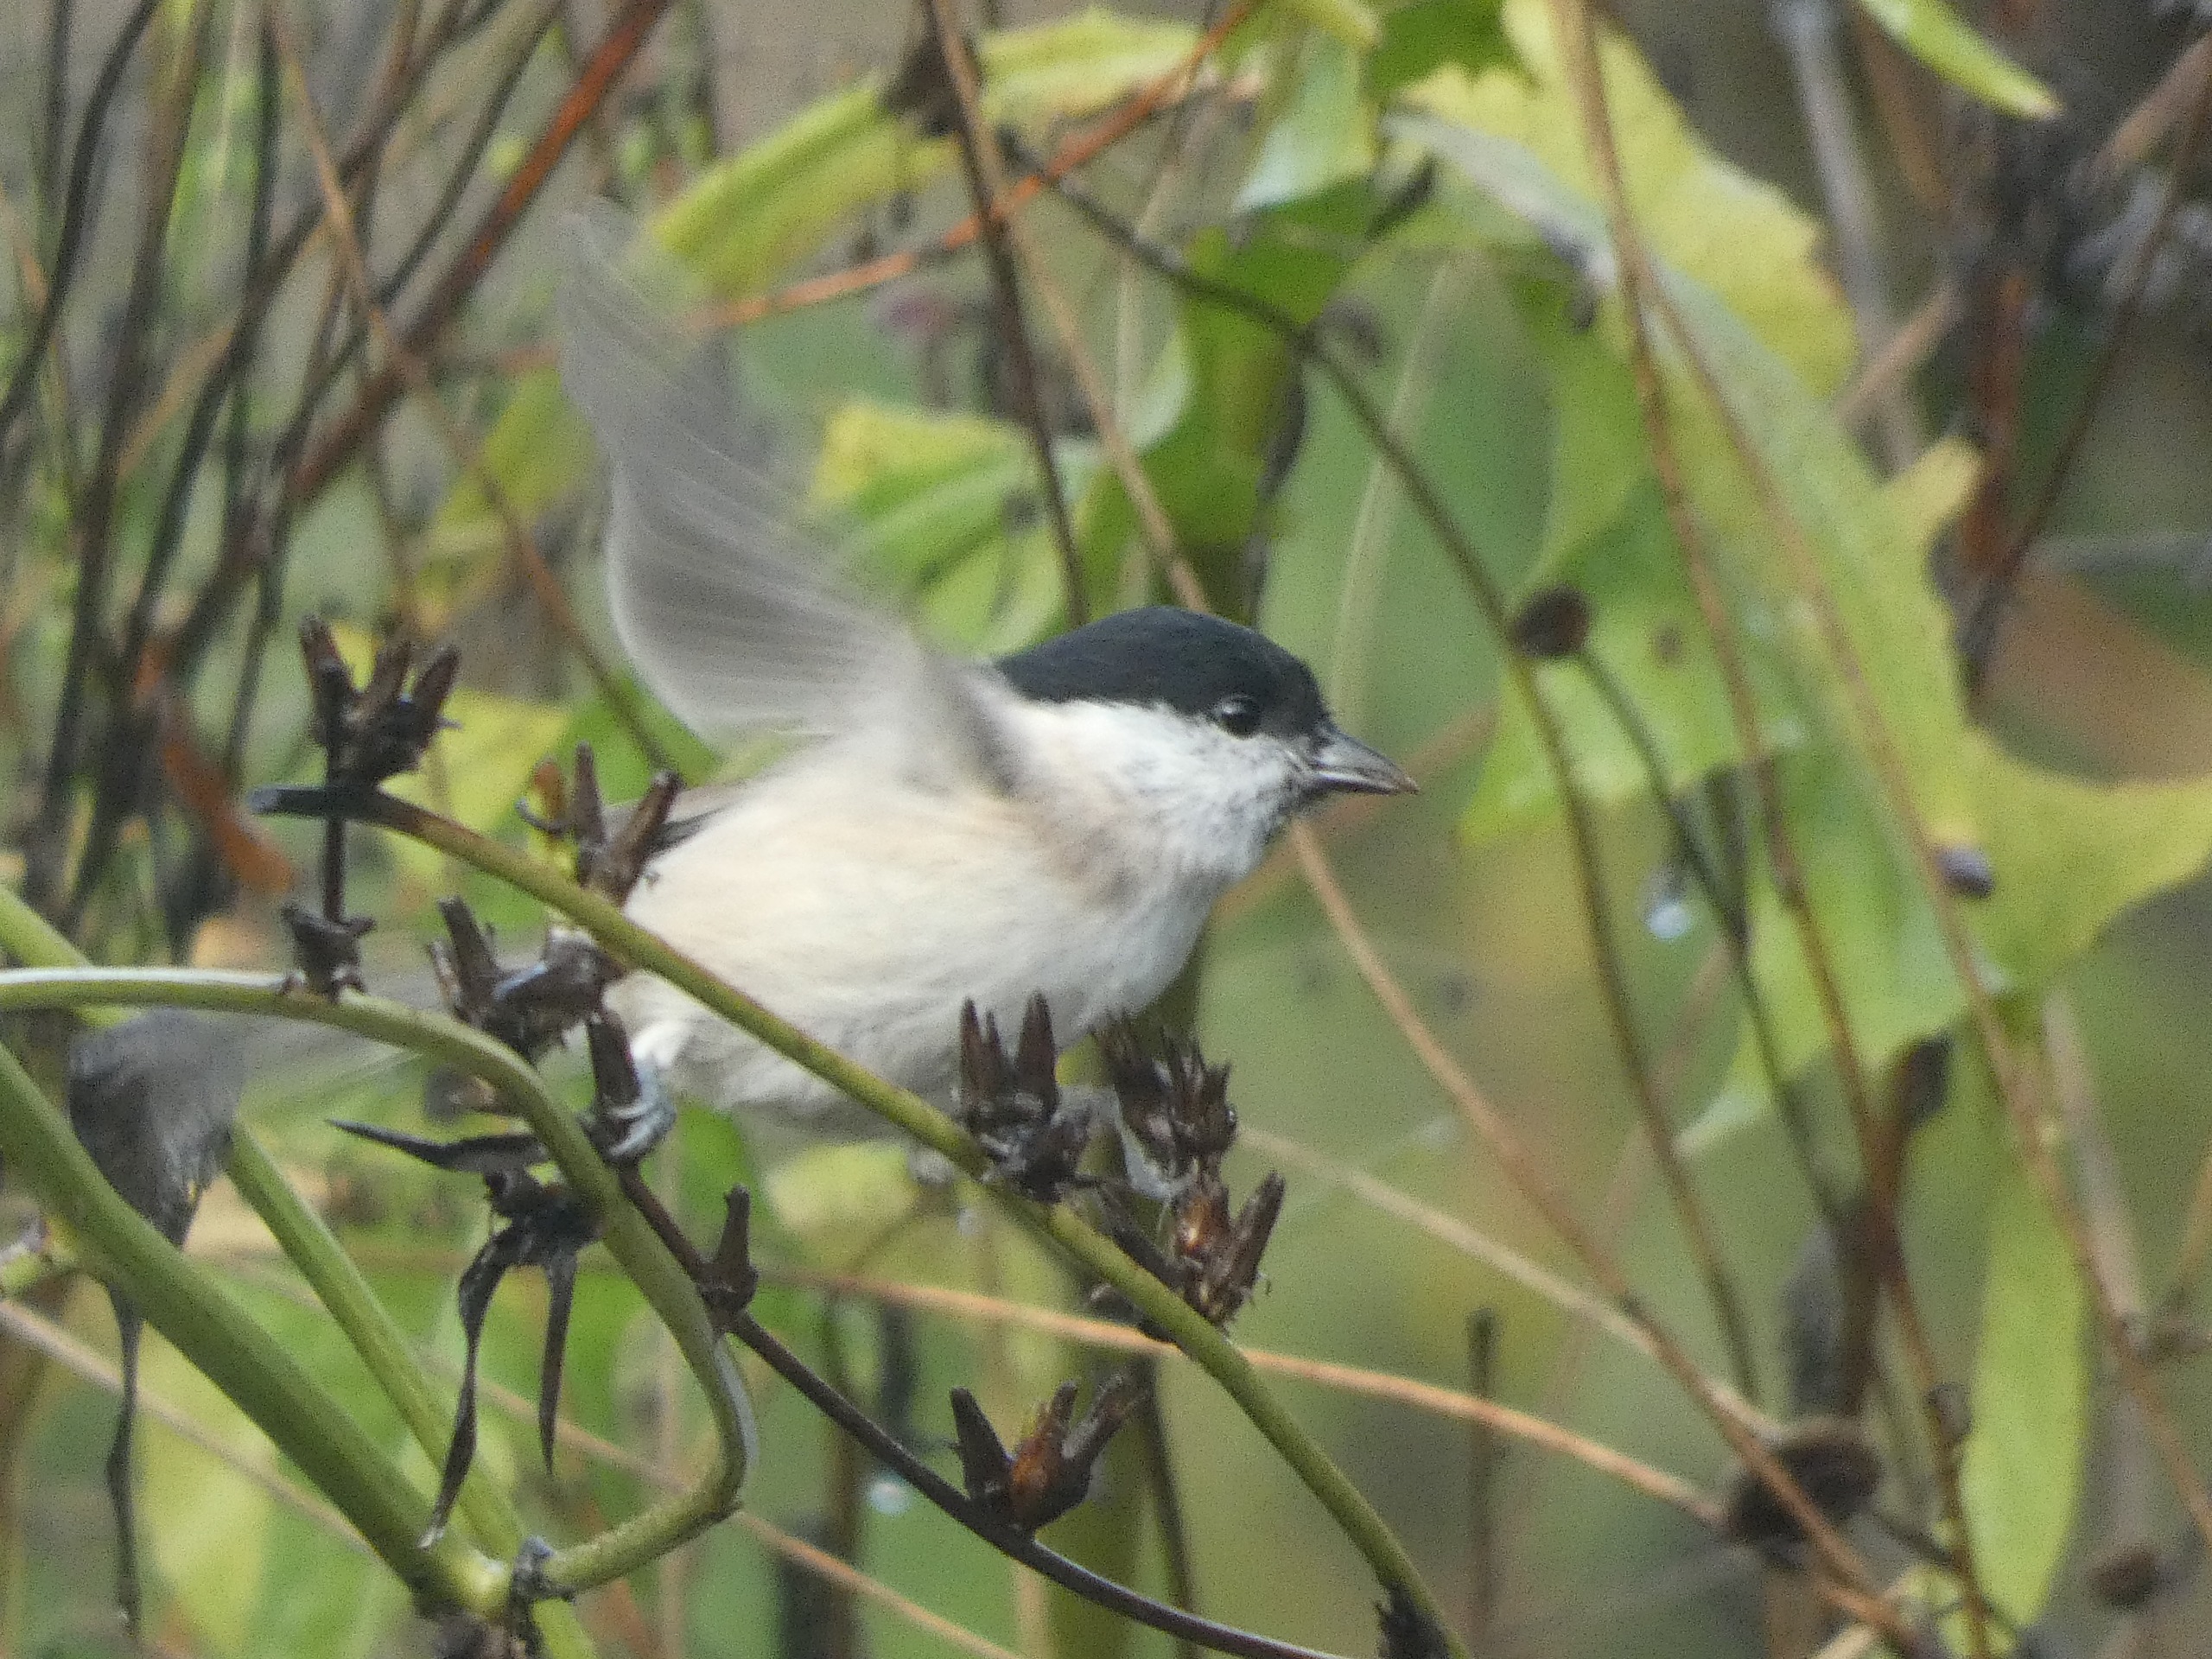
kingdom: Animalia
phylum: Chordata
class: Aves
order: Passeriformes
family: Paridae
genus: Poecile
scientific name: Poecile palustris
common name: Sumpmejse
